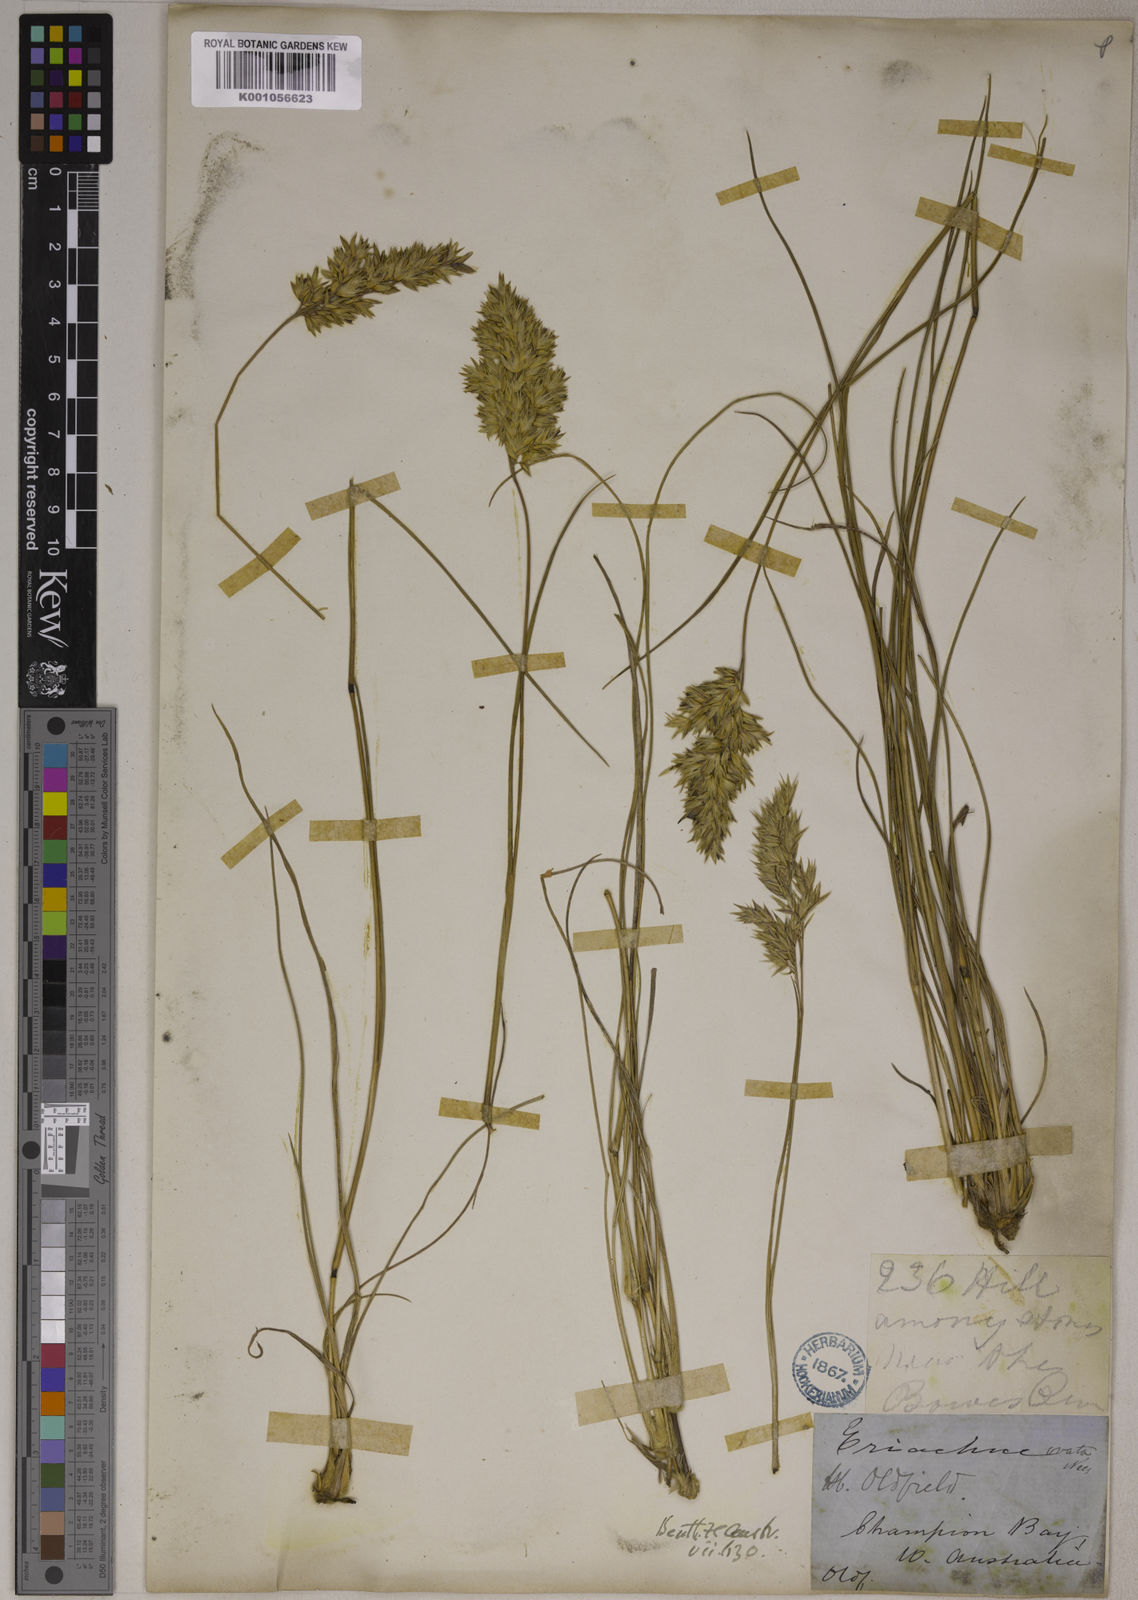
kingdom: Plantae
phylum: Tracheophyta
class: Liliopsida
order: Poales
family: Poaceae
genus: Eriachne
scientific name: Eriachne ovata
